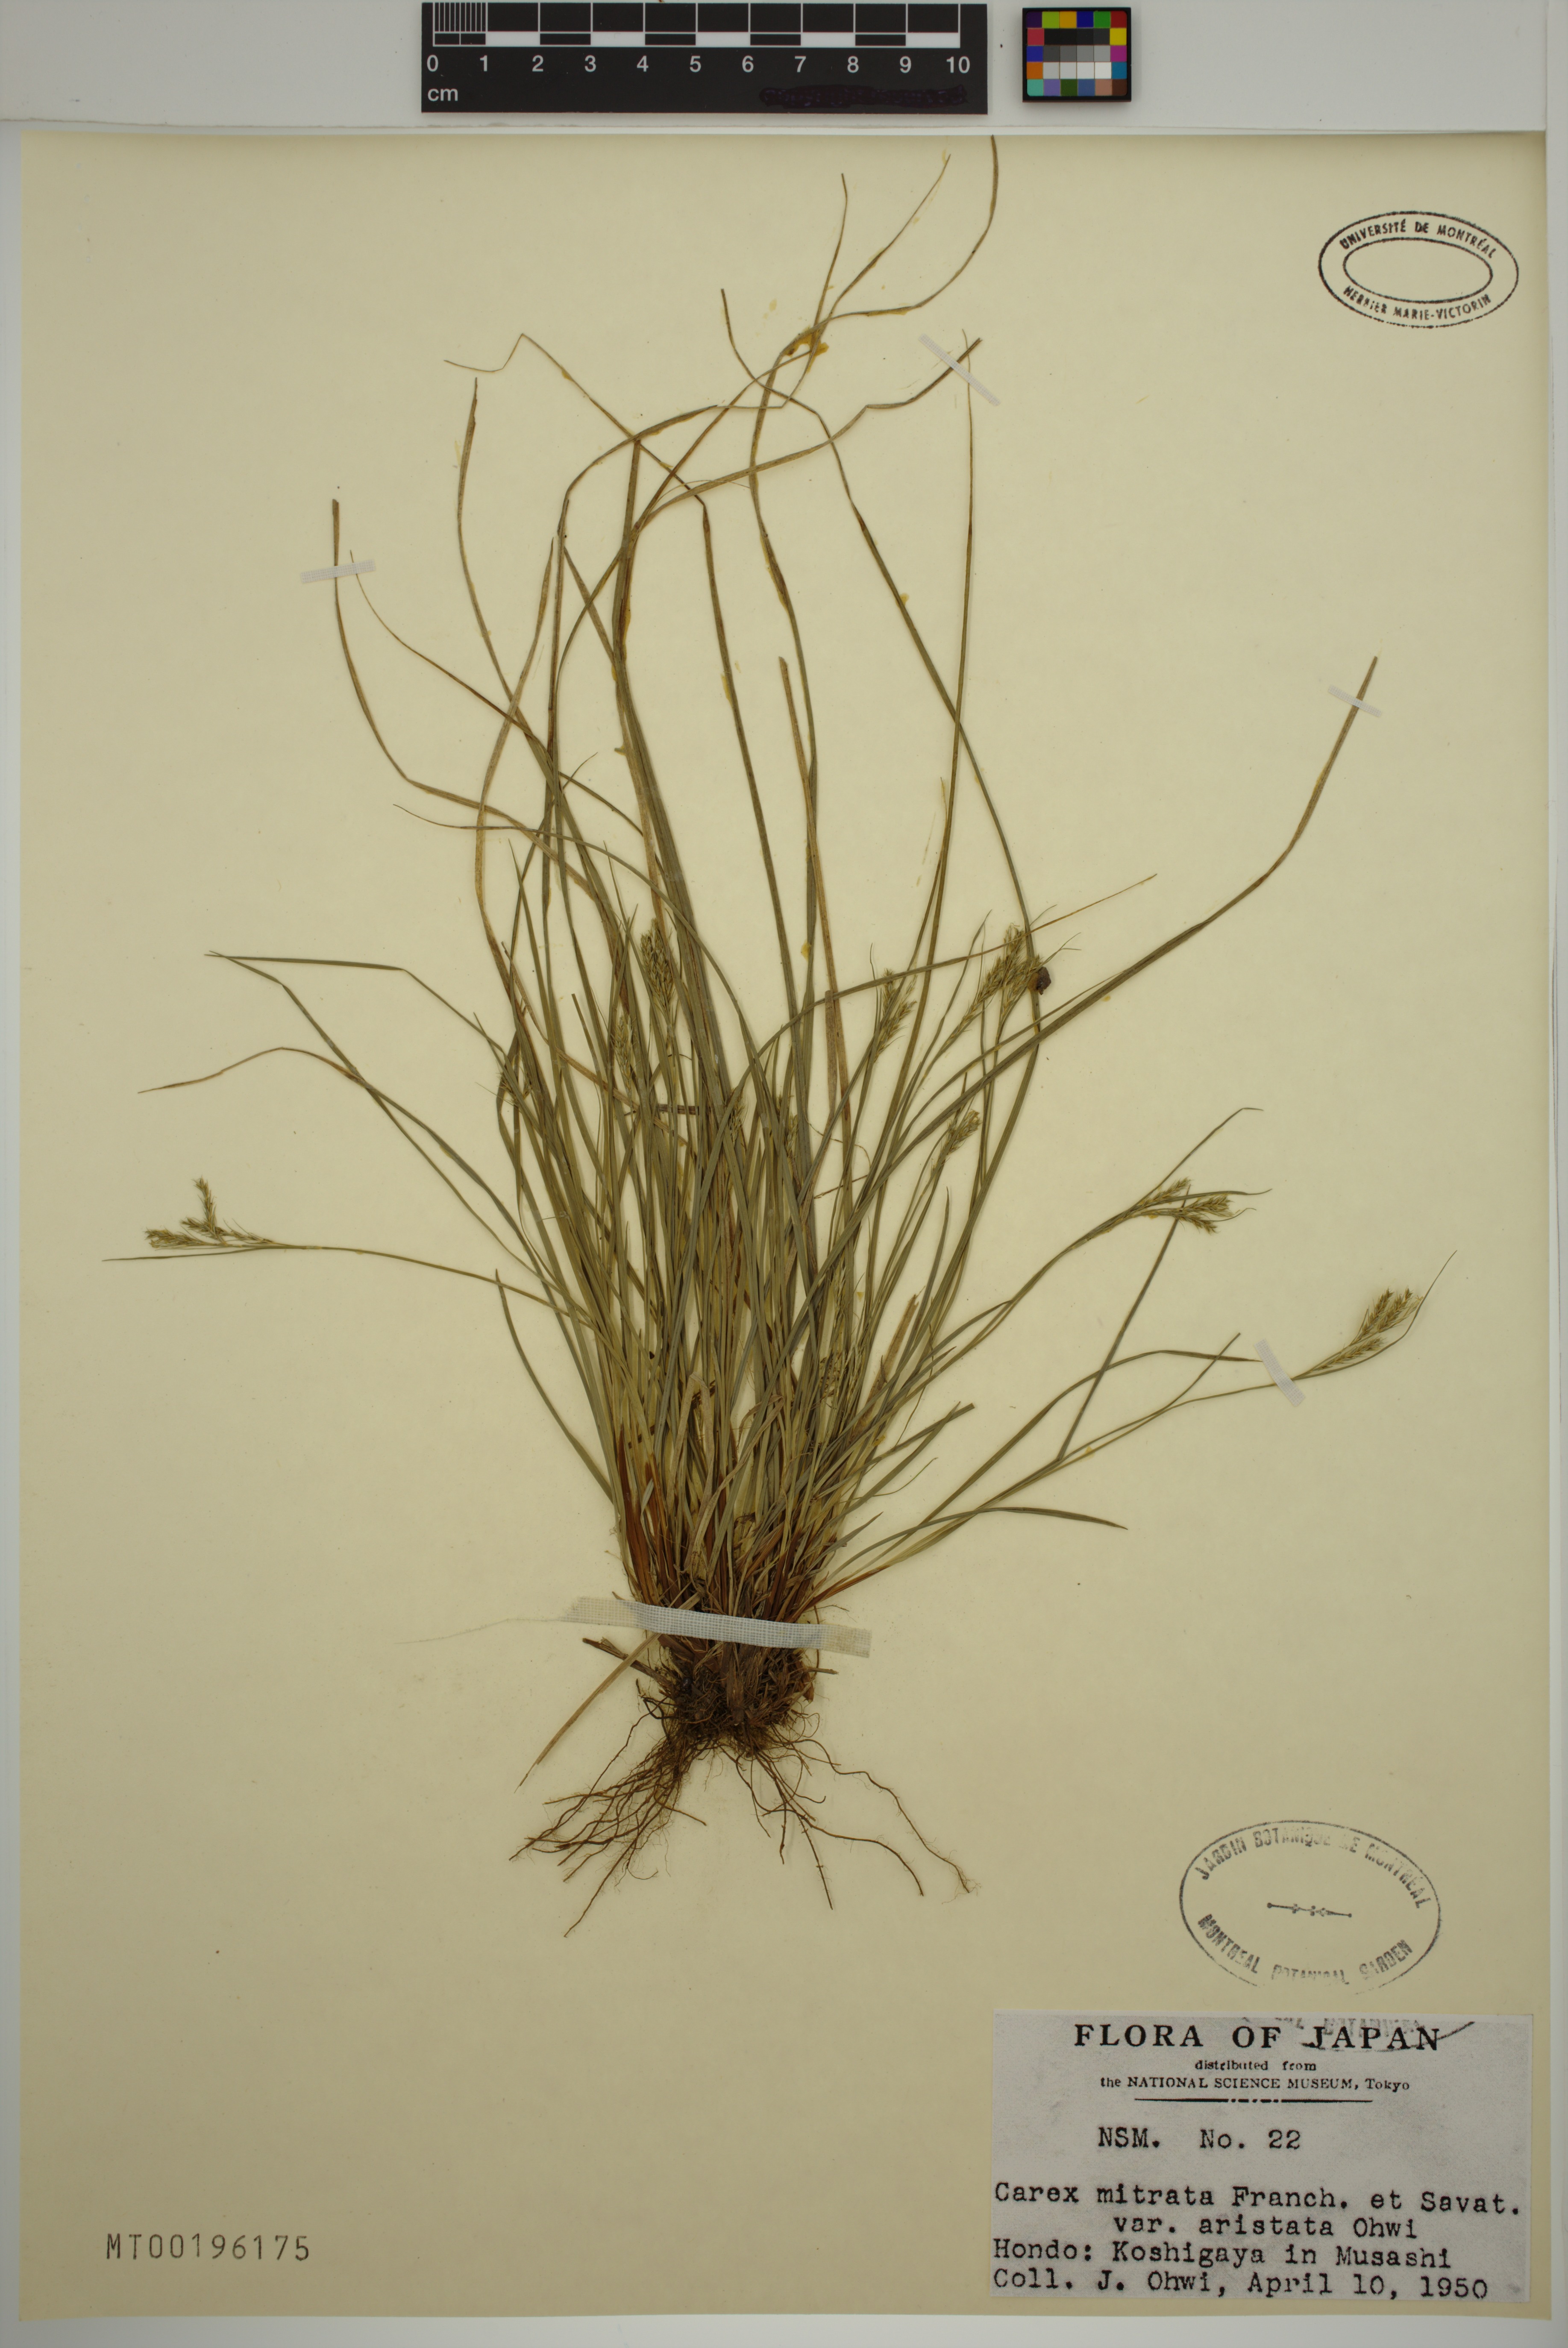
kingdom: Plantae
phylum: Tracheophyta
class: Liliopsida
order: Poales
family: Cyperaceae
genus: Carex
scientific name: Carex mitrata
